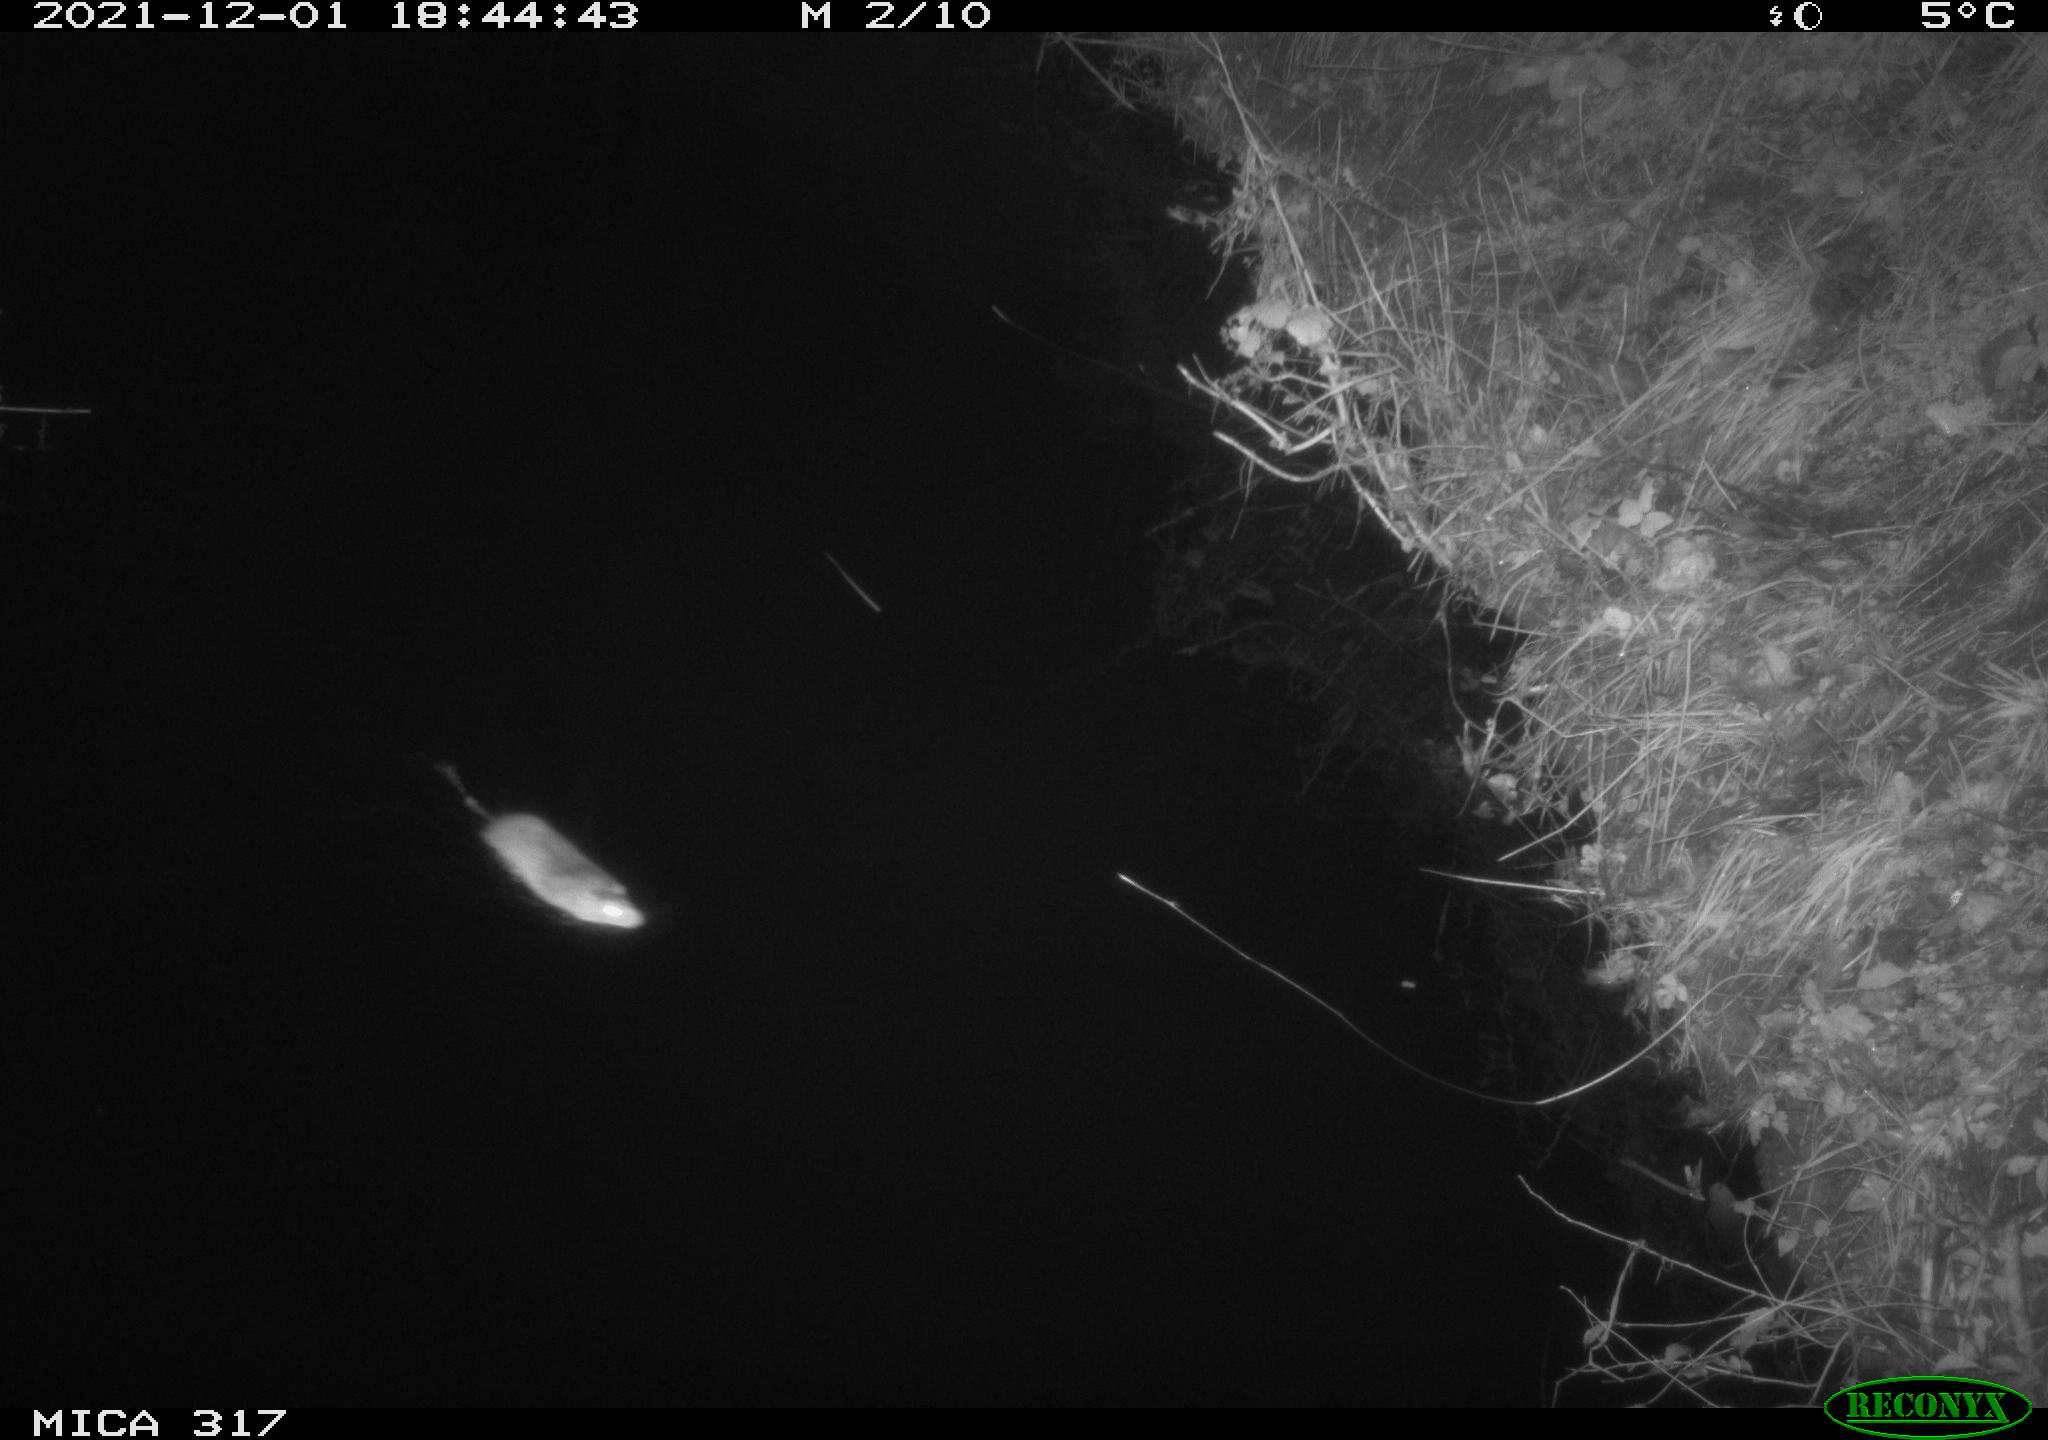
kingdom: Animalia
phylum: Chordata
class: Mammalia
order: Rodentia
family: Muridae
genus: Rattus
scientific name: Rattus norvegicus
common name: Brown rat
